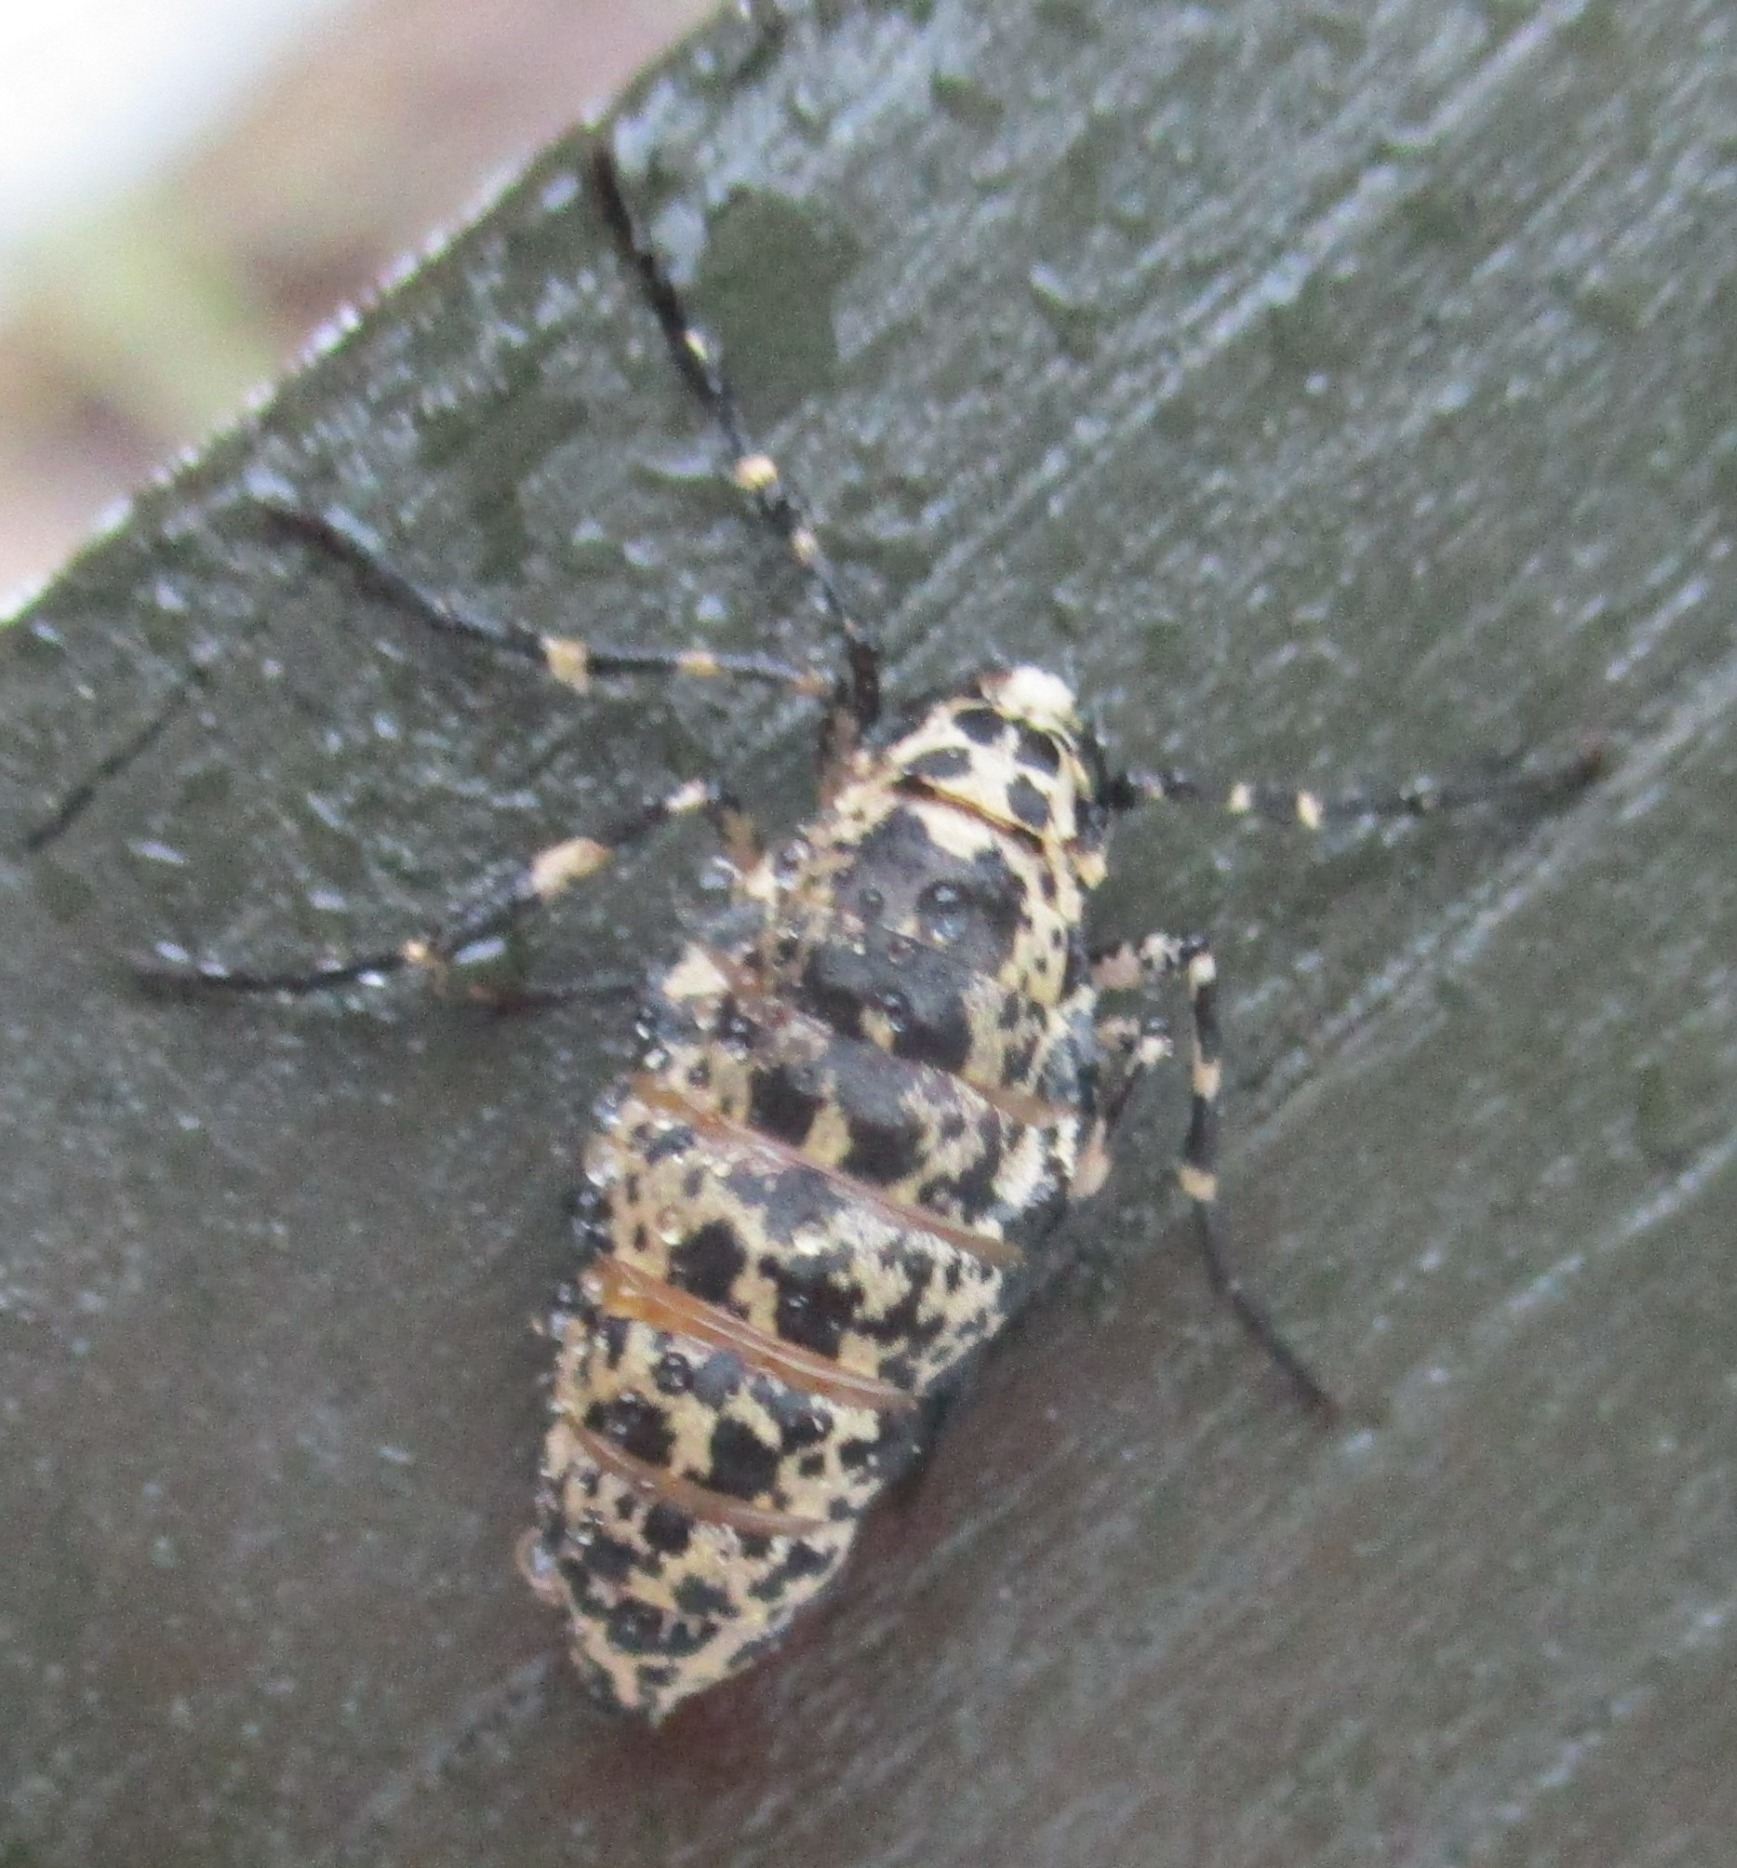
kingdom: Animalia
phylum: Arthropoda
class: Insecta
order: Lepidoptera
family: Geometridae
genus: Erannis
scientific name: Erannis defoliaria
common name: Stor frostmåler
